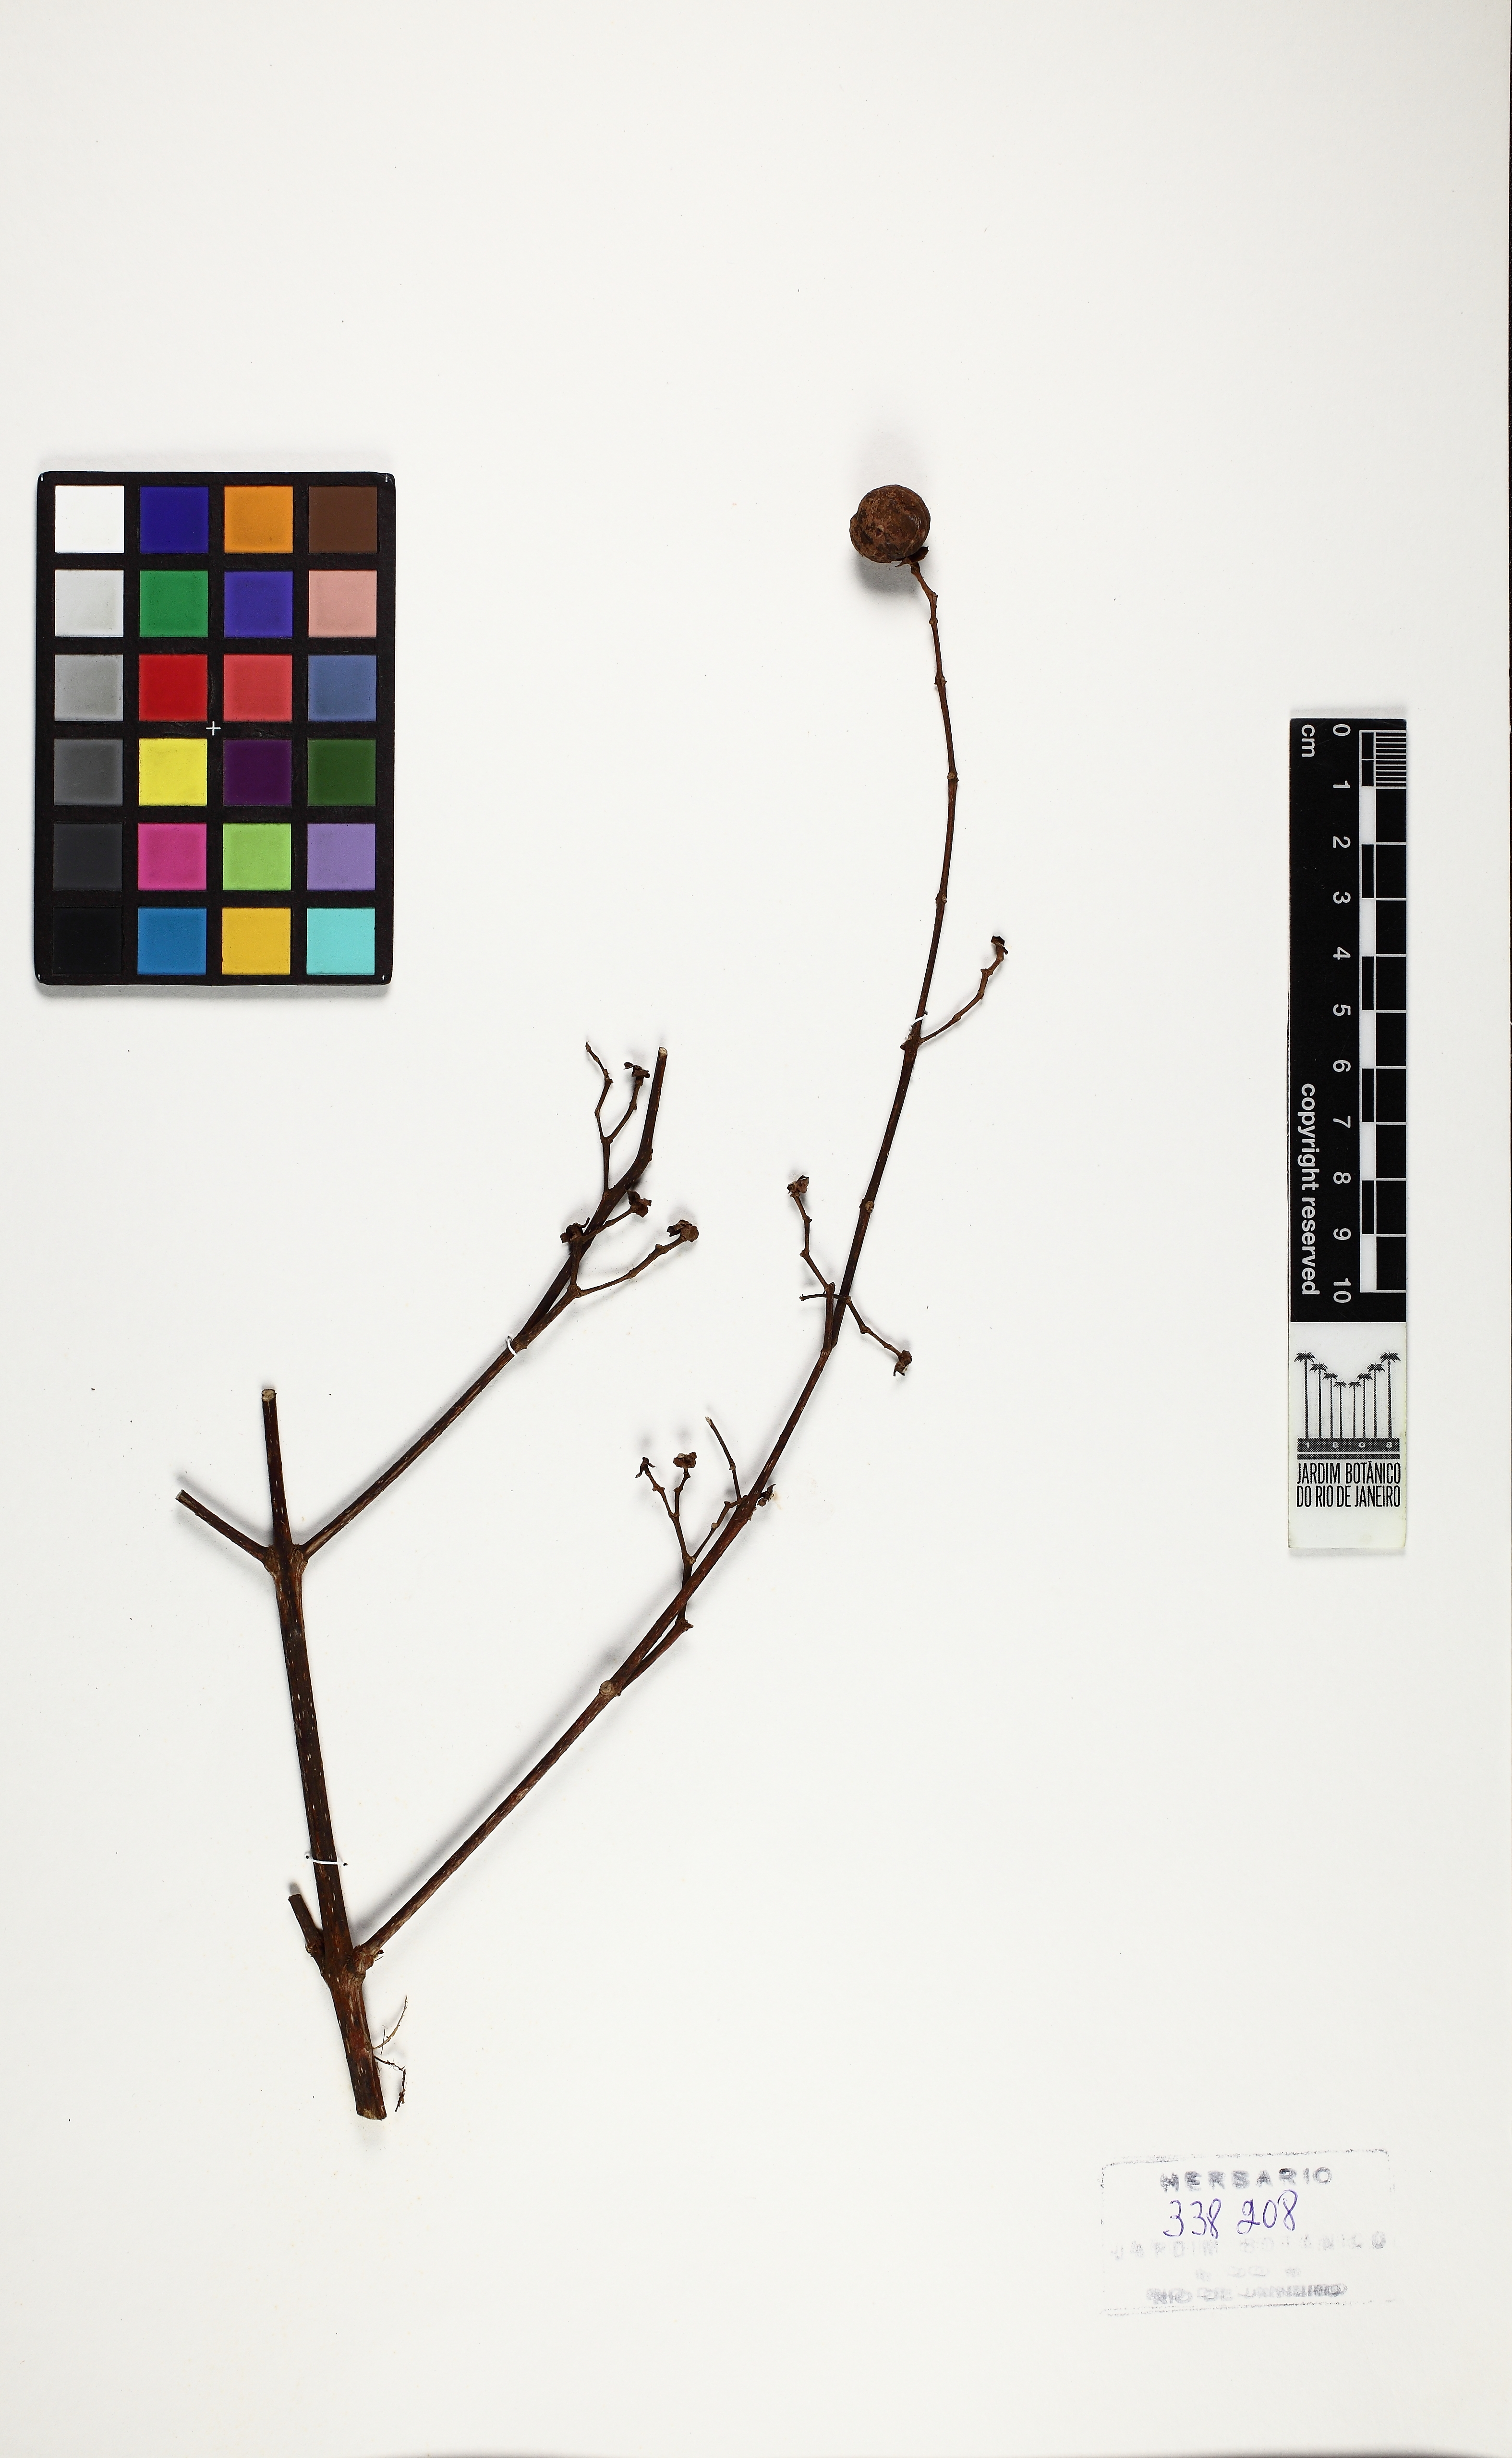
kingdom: Plantae
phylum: Tracheophyta
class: Magnoliopsida
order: Lamiales
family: Lamiaceae
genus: Vitex
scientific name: Vitex sprucei
